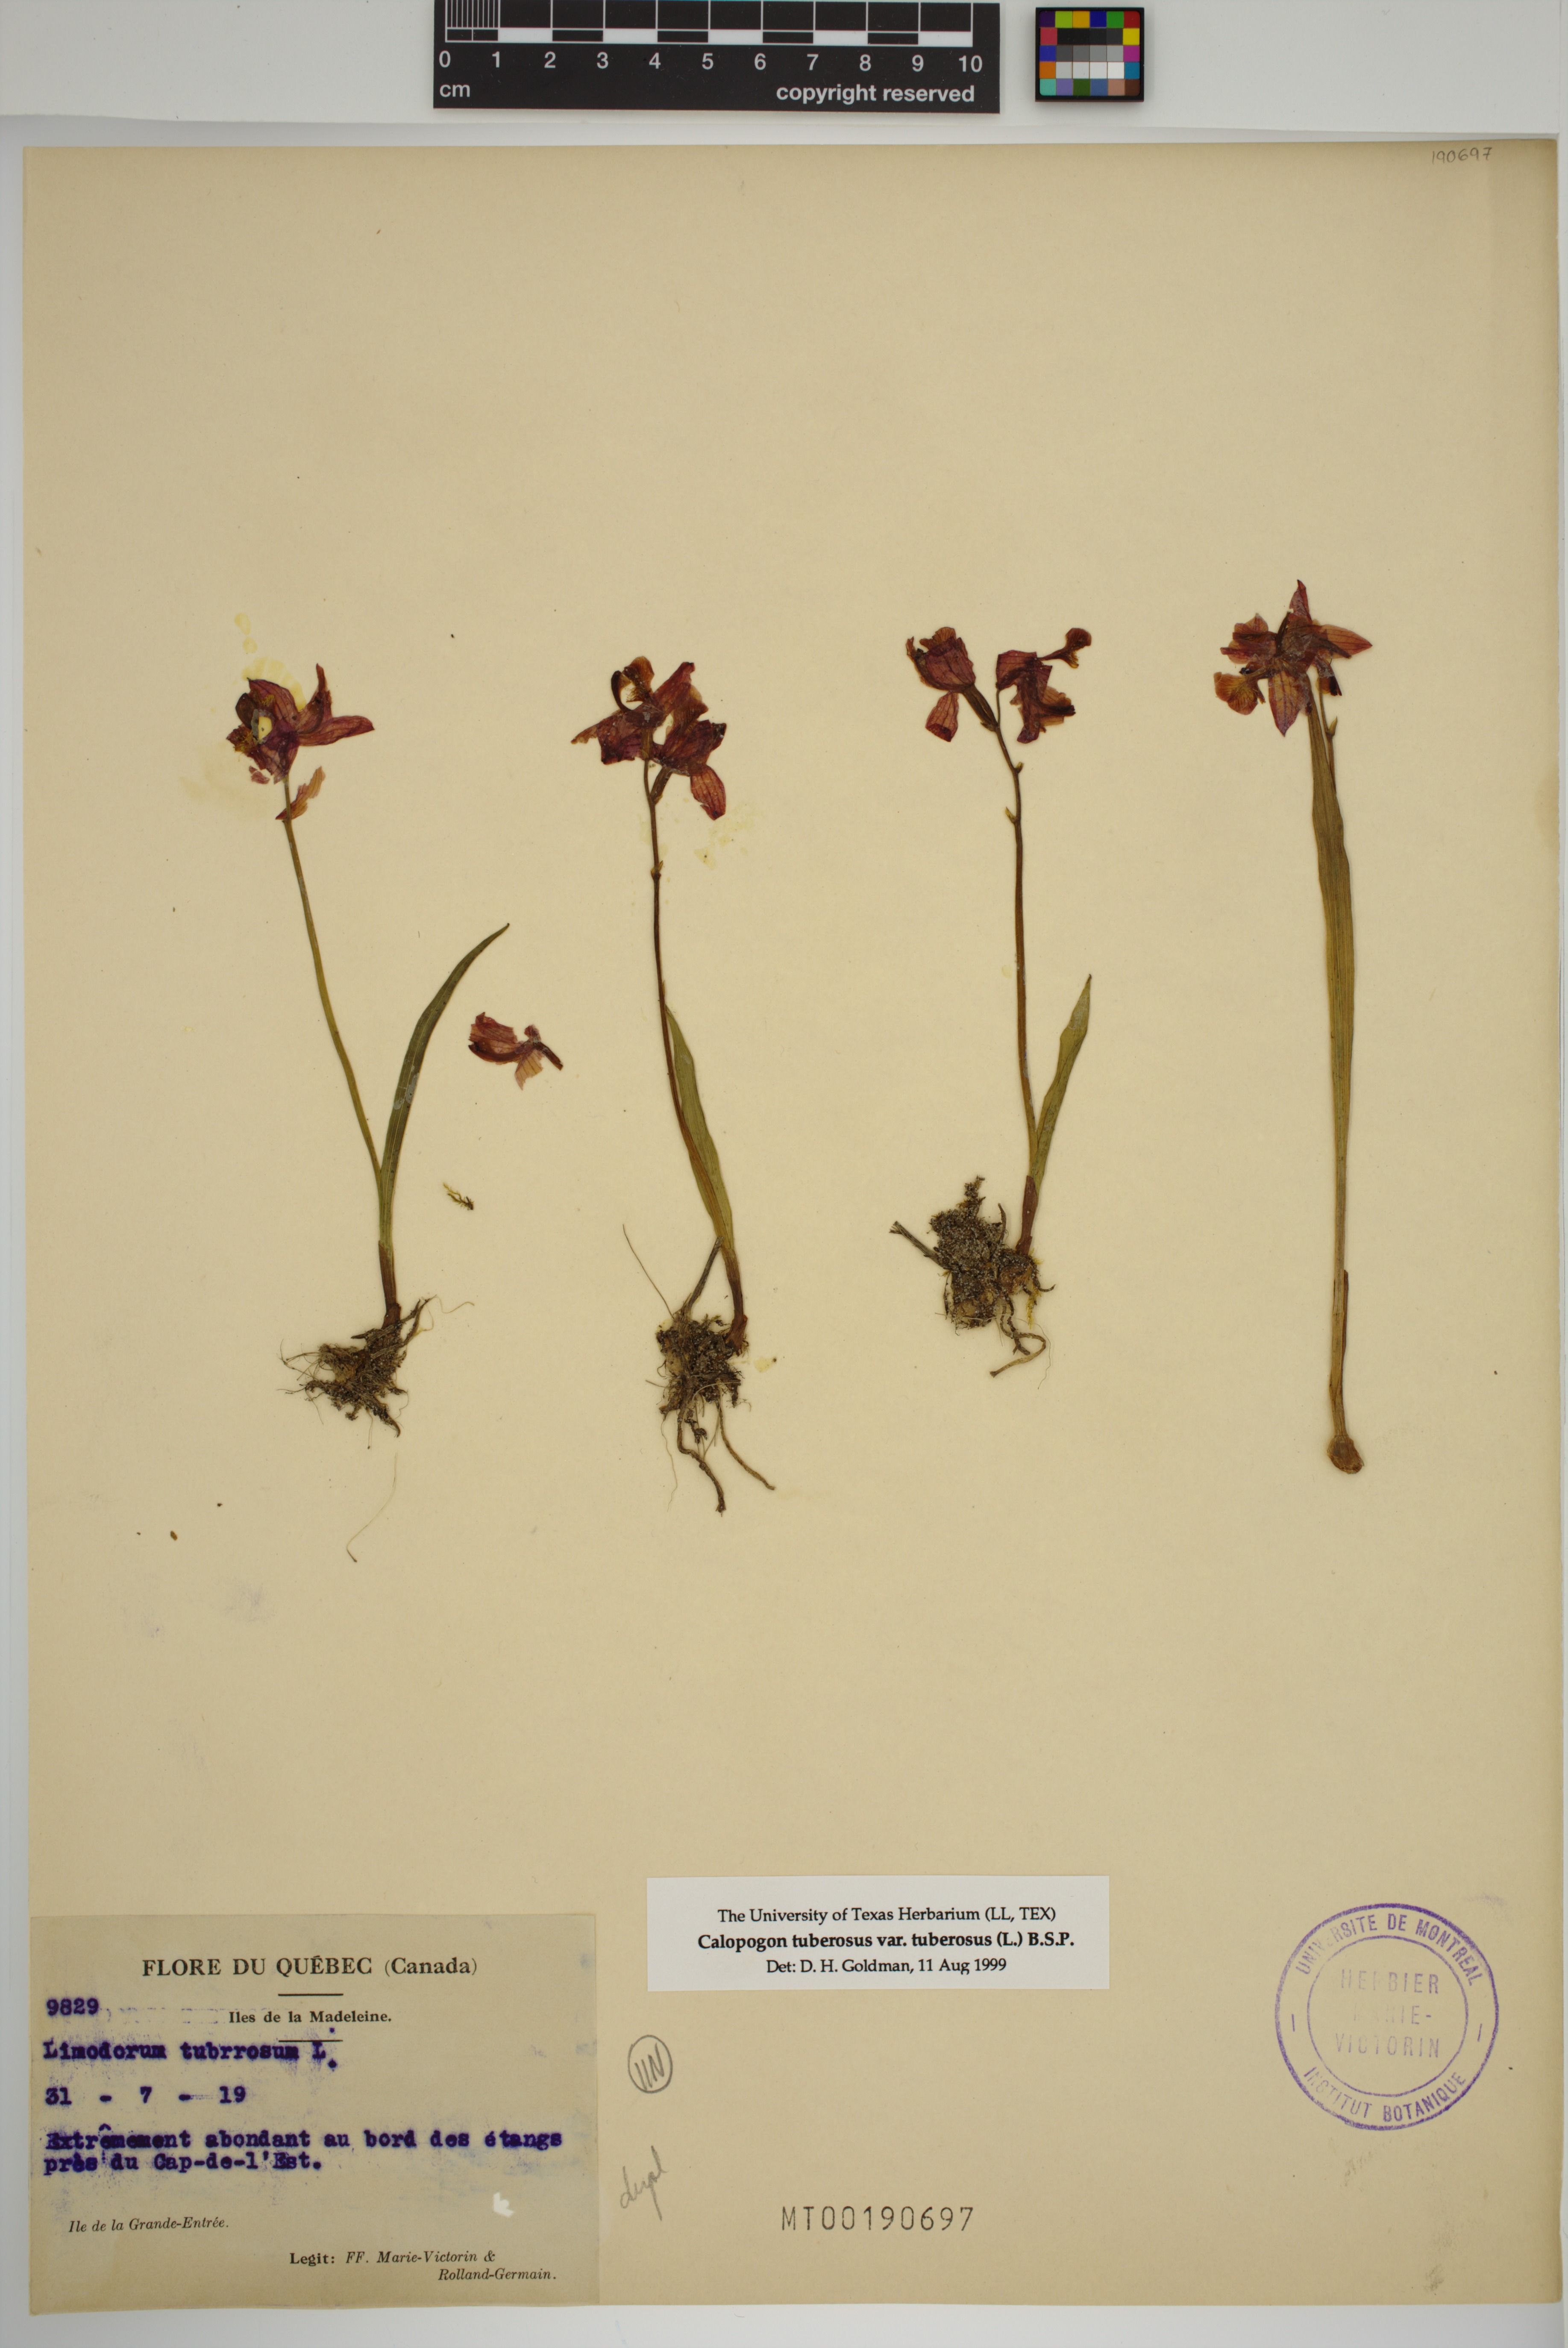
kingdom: Plantae
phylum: Tracheophyta
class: Liliopsida
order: Asparagales
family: Orchidaceae
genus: Calopogon
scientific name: Calopogon tuberosus
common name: Grass-pink
